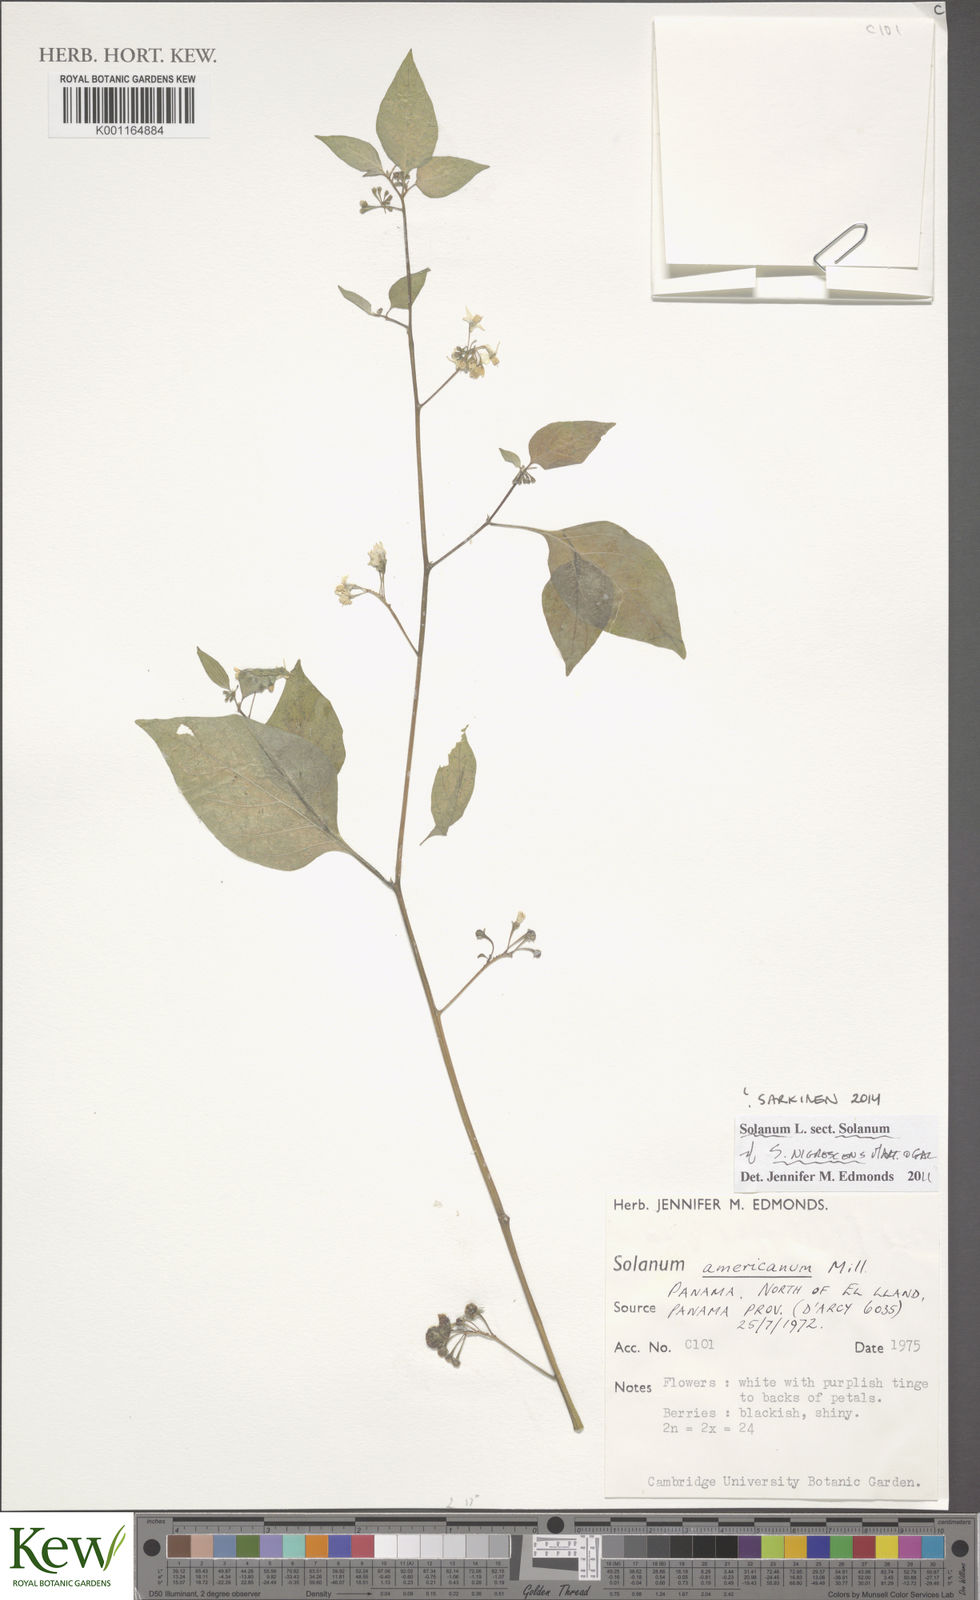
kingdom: Plantae
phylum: Tracheophyta
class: Magnoliopsida
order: Solanales
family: Solanaceae
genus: Solanum
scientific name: Solanum nigrescens
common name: Divine nightshade
